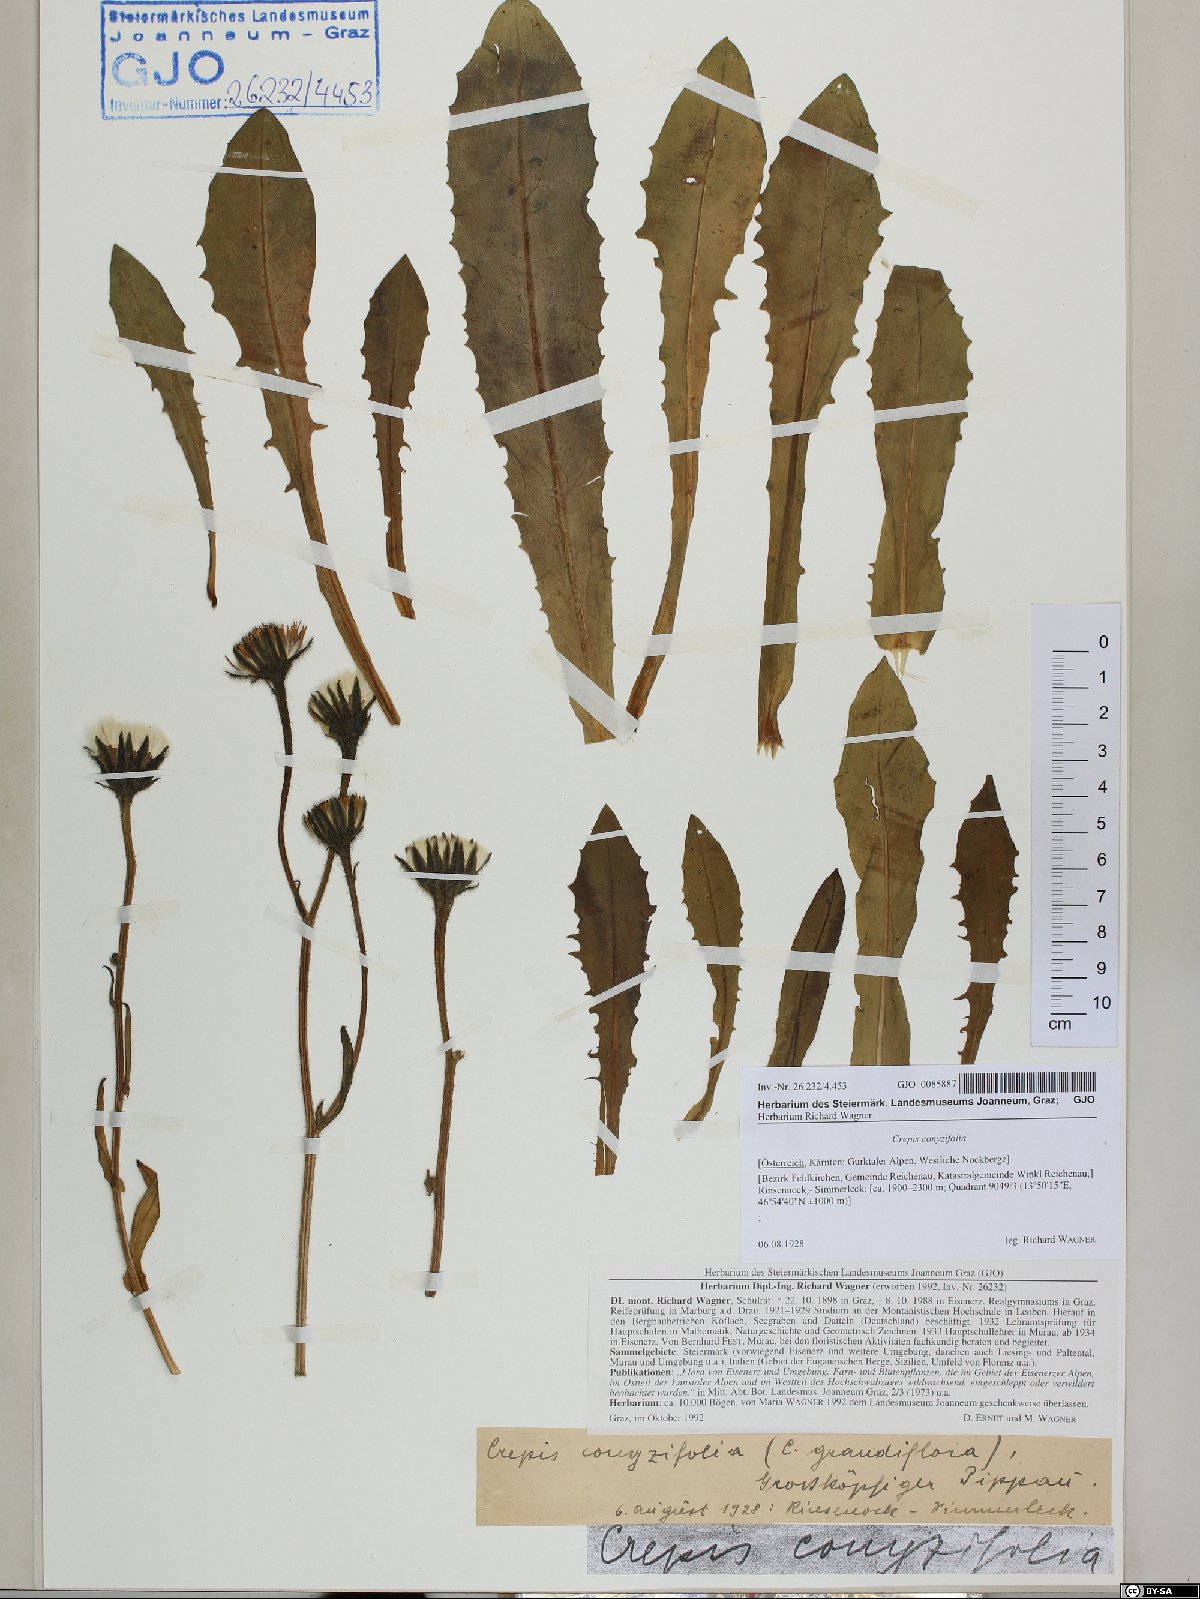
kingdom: Plantae
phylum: Tracheophyta
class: Magnoliopsida
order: Asterales
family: Asteraceae
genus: Crepis
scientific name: Crepis blattarioides
